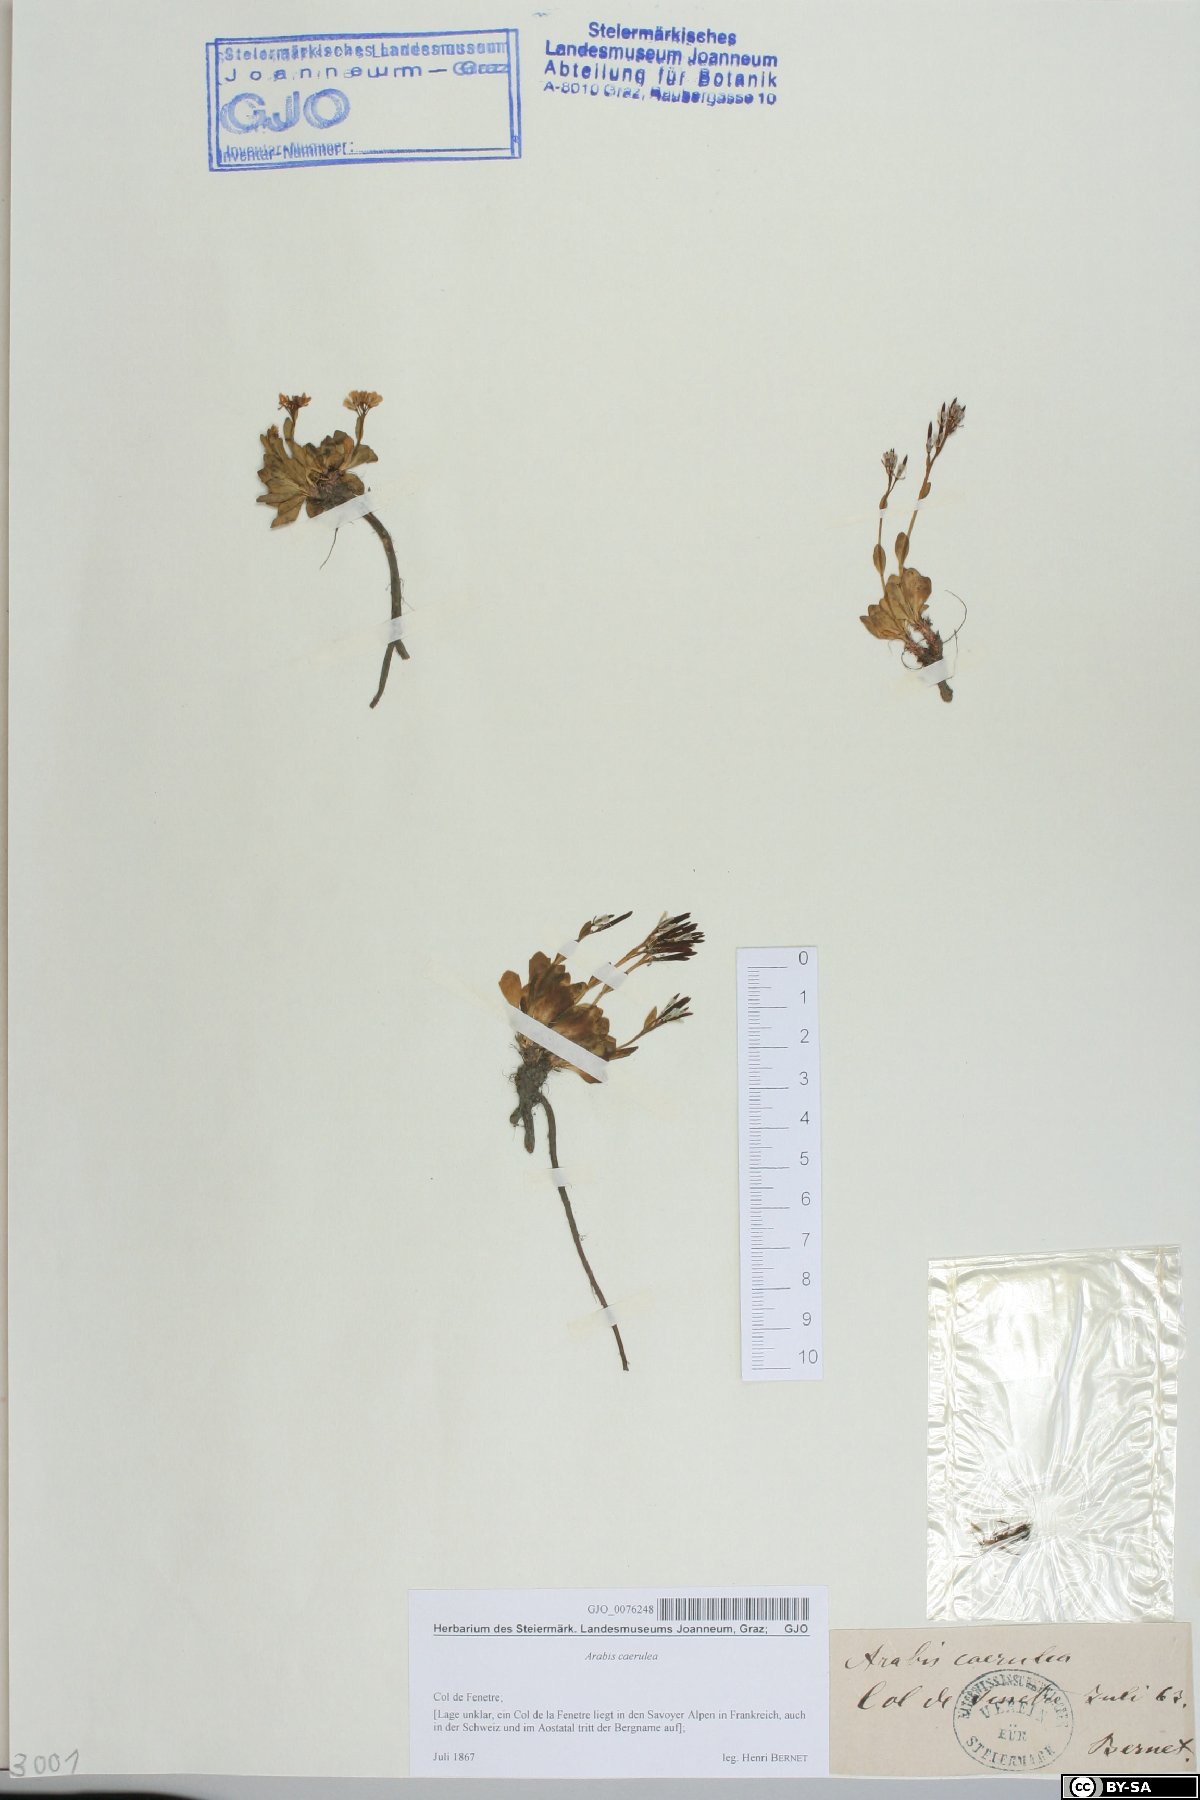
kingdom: Plantae
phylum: Tracheophyta
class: Magnoliopsida
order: Brassicales
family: Brassicaceae
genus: Arabis
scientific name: Arabis caerulea
